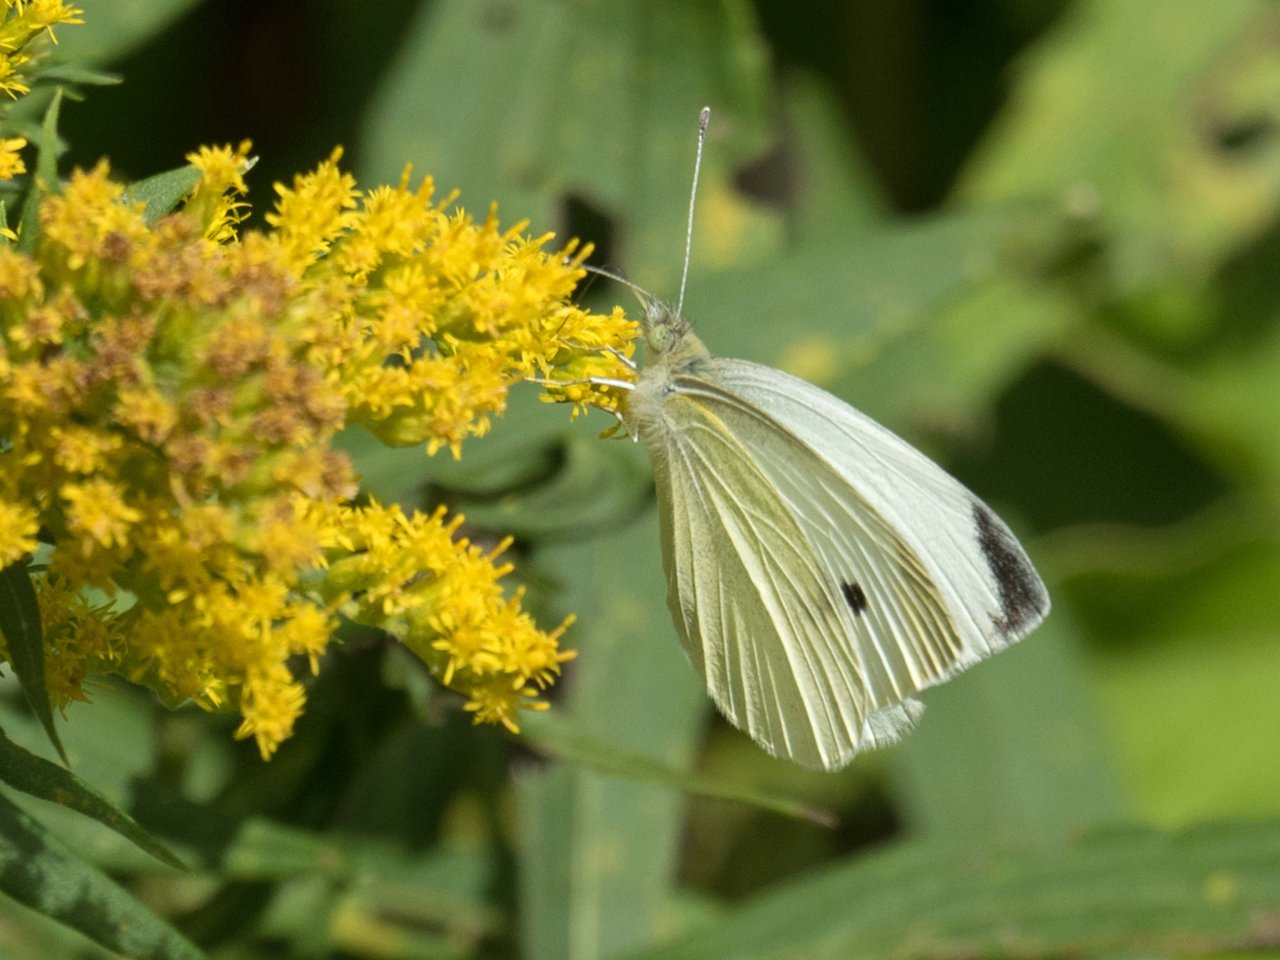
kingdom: Animalia
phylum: Arthropoda
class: Insecta
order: Lepidoptera
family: Pieridae
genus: Pieris
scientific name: Pieris rapae
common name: Cabbage White
